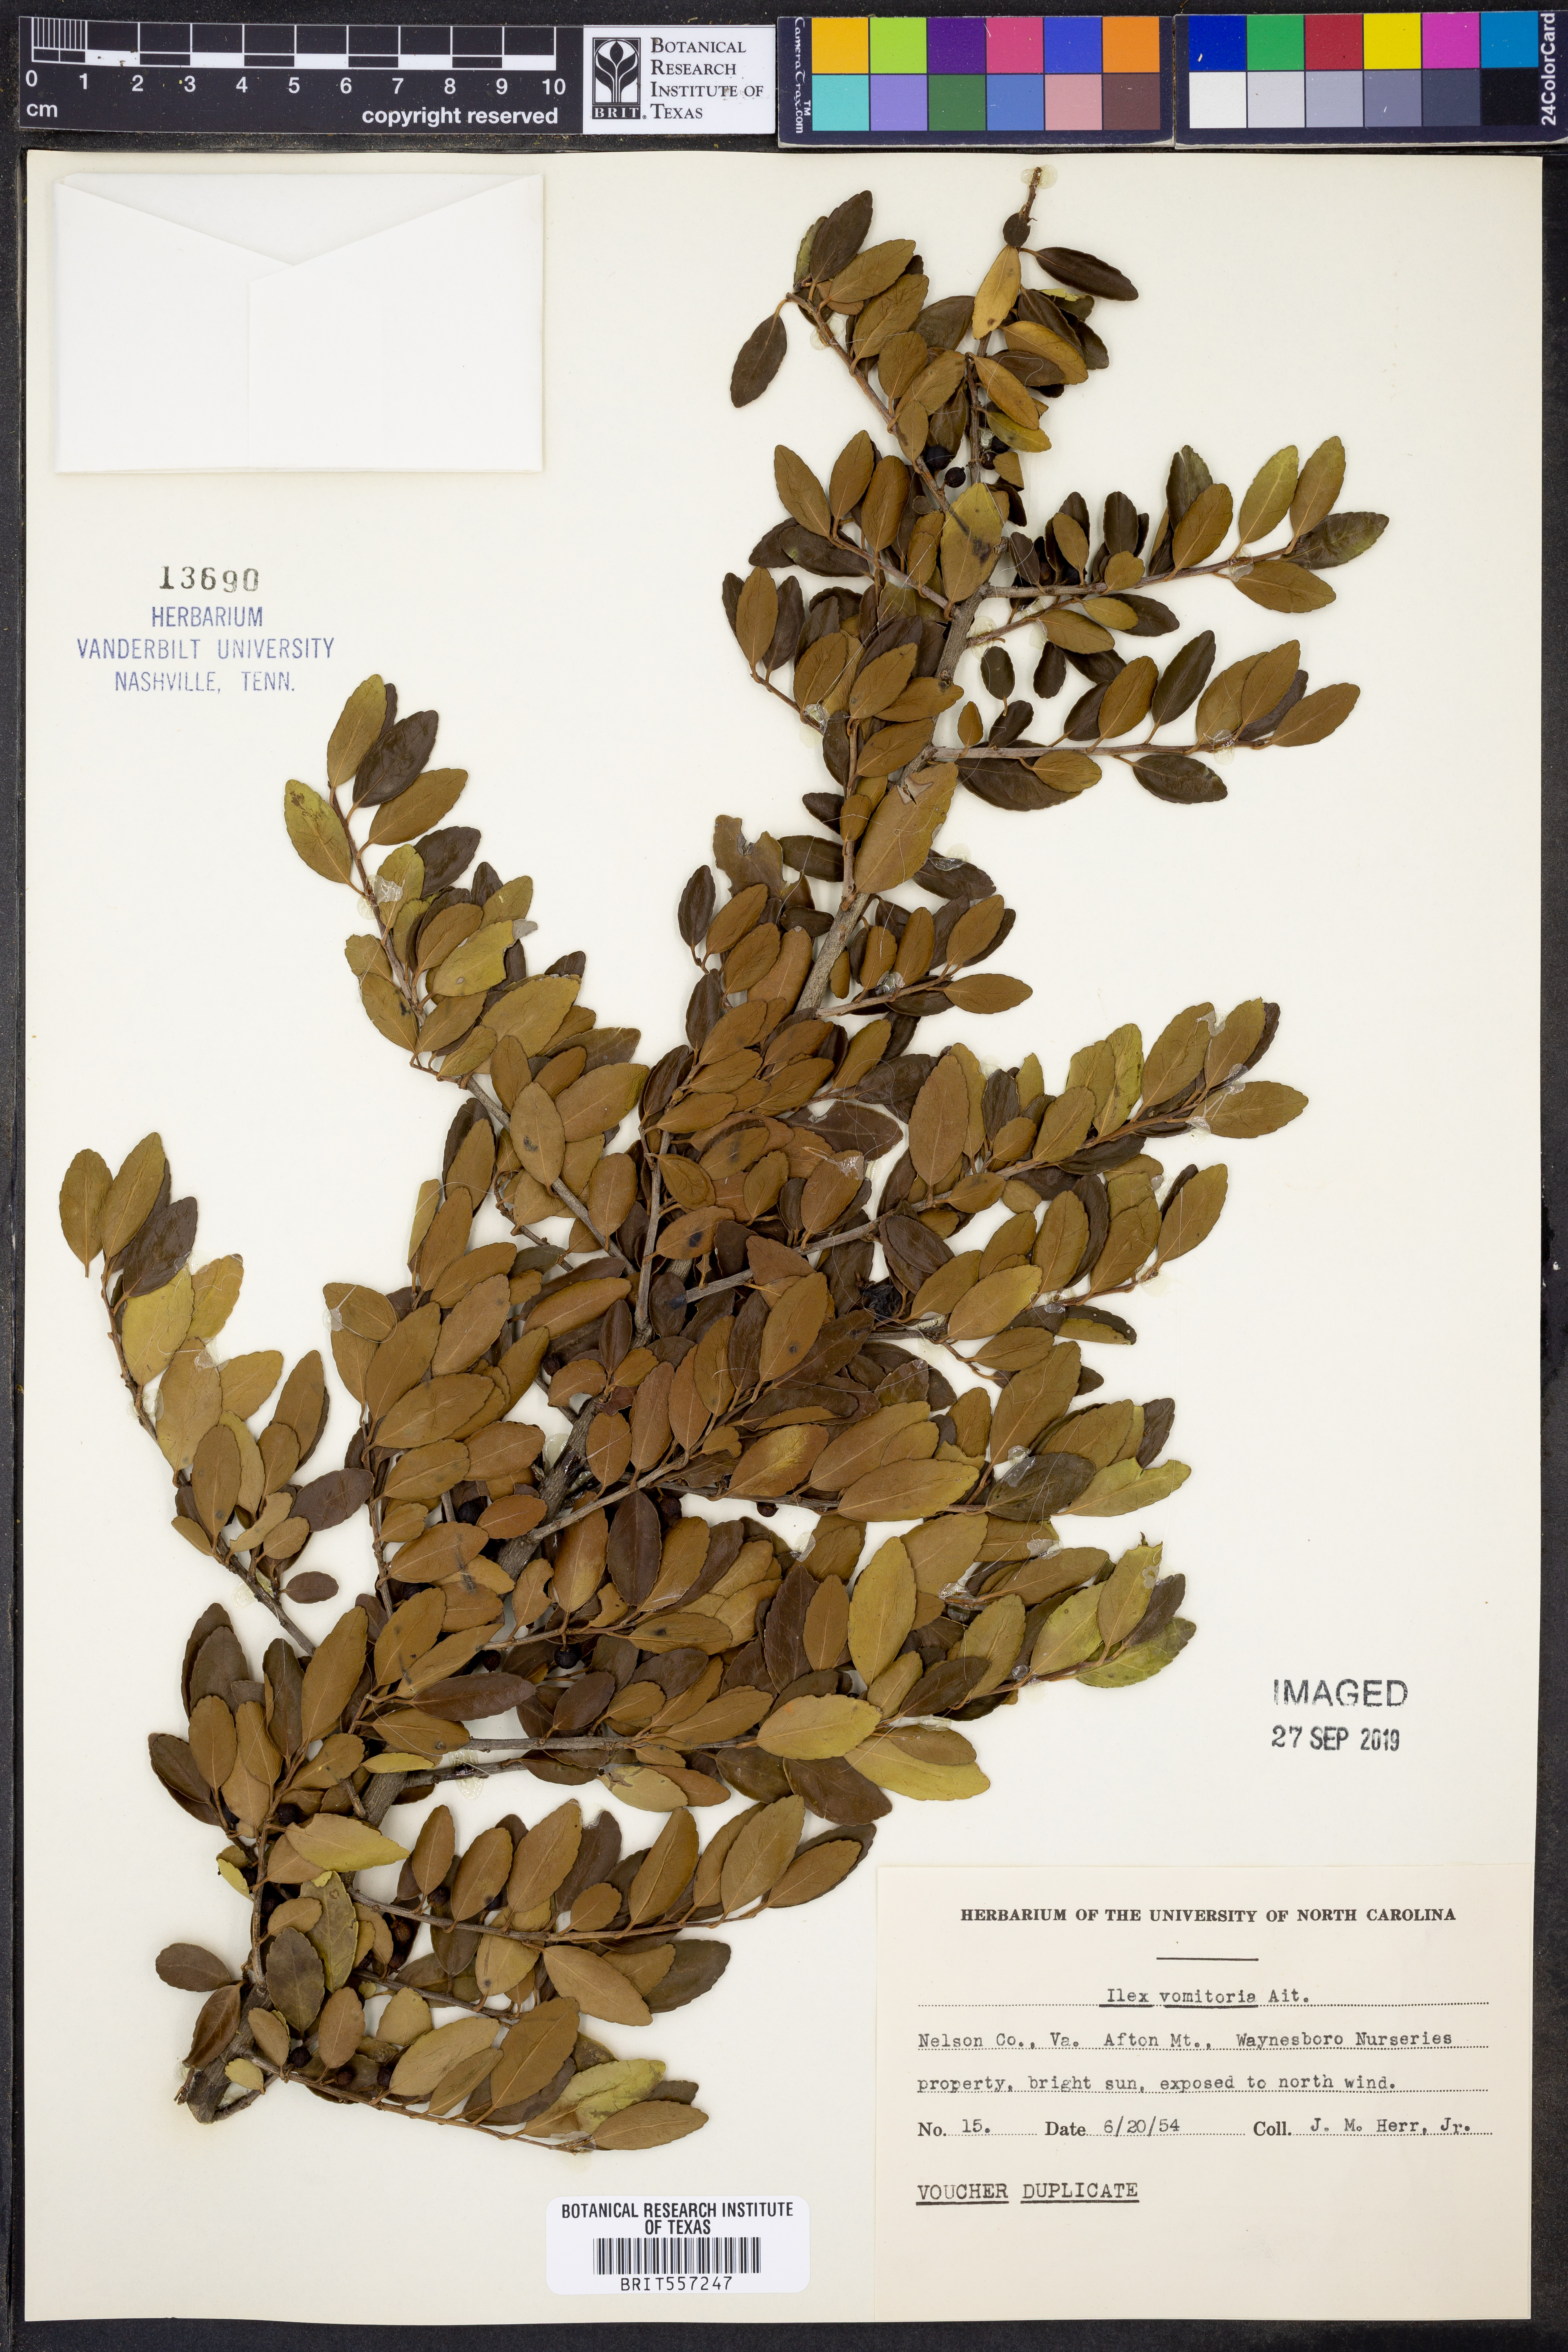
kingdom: Plantae
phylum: Tracheophyta
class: Magnoliopsida
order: Aquifoliales
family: Aquifoliaceae
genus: Ilex
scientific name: Ilex vomitoria
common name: Yaupon holly
